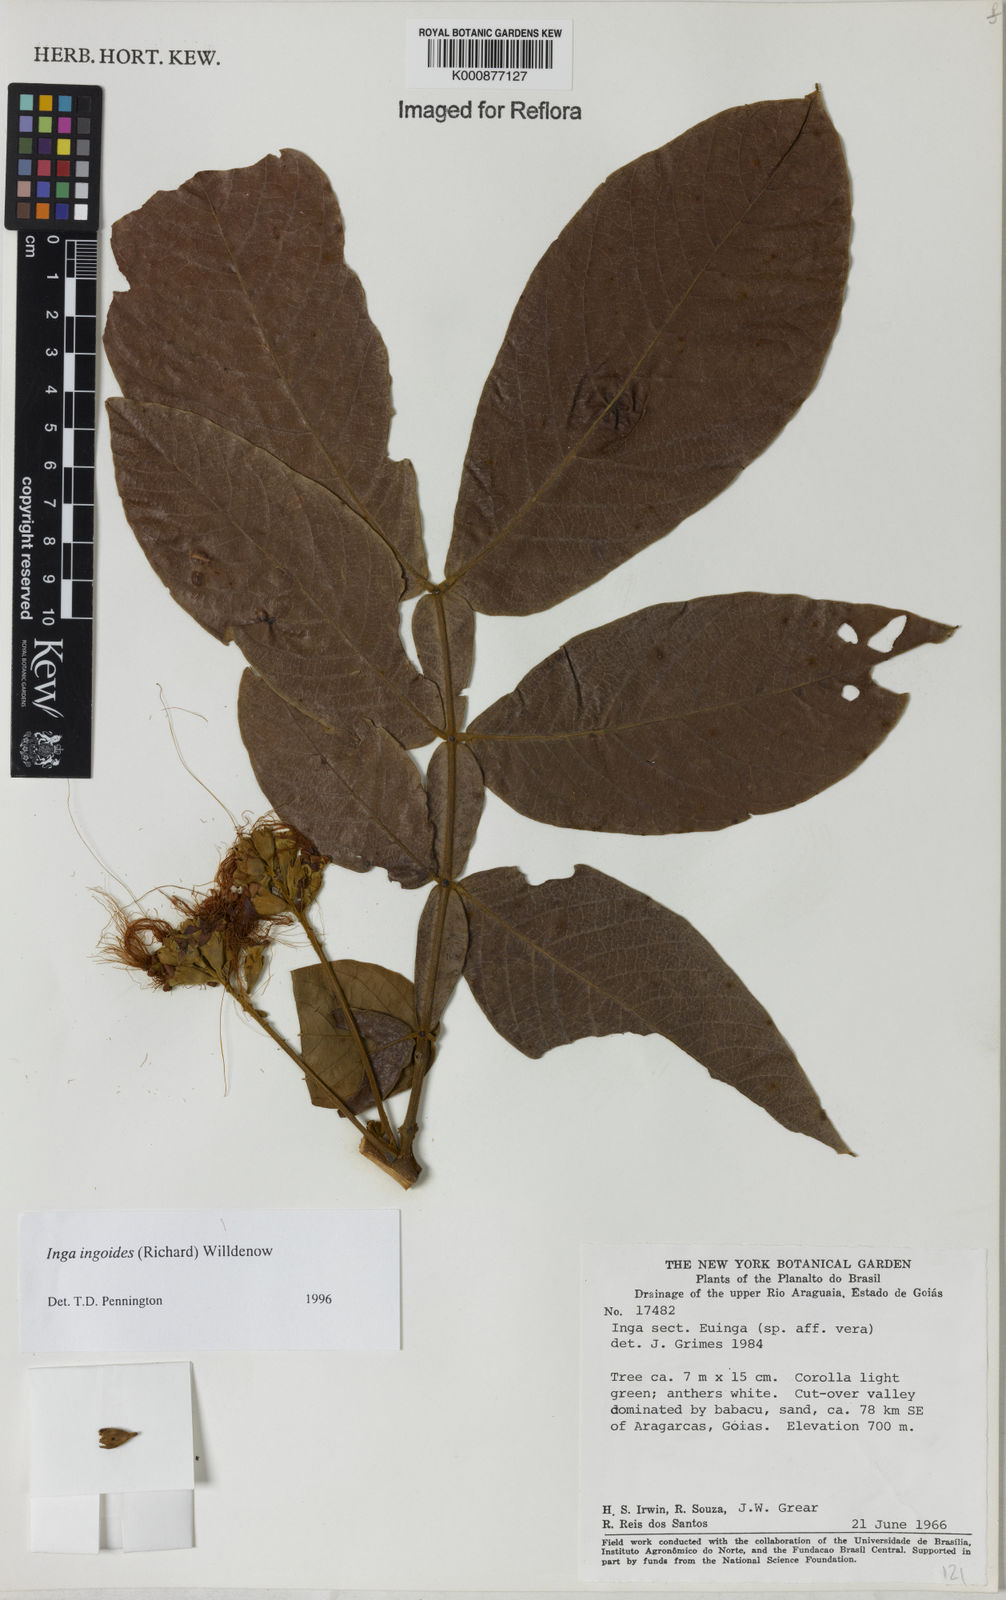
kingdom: Plantae
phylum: Tracheophyta
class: Magnoliopsida
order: Fabales
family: Fabaceae
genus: Inga
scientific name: Inga ingoides
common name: Spanish ash
